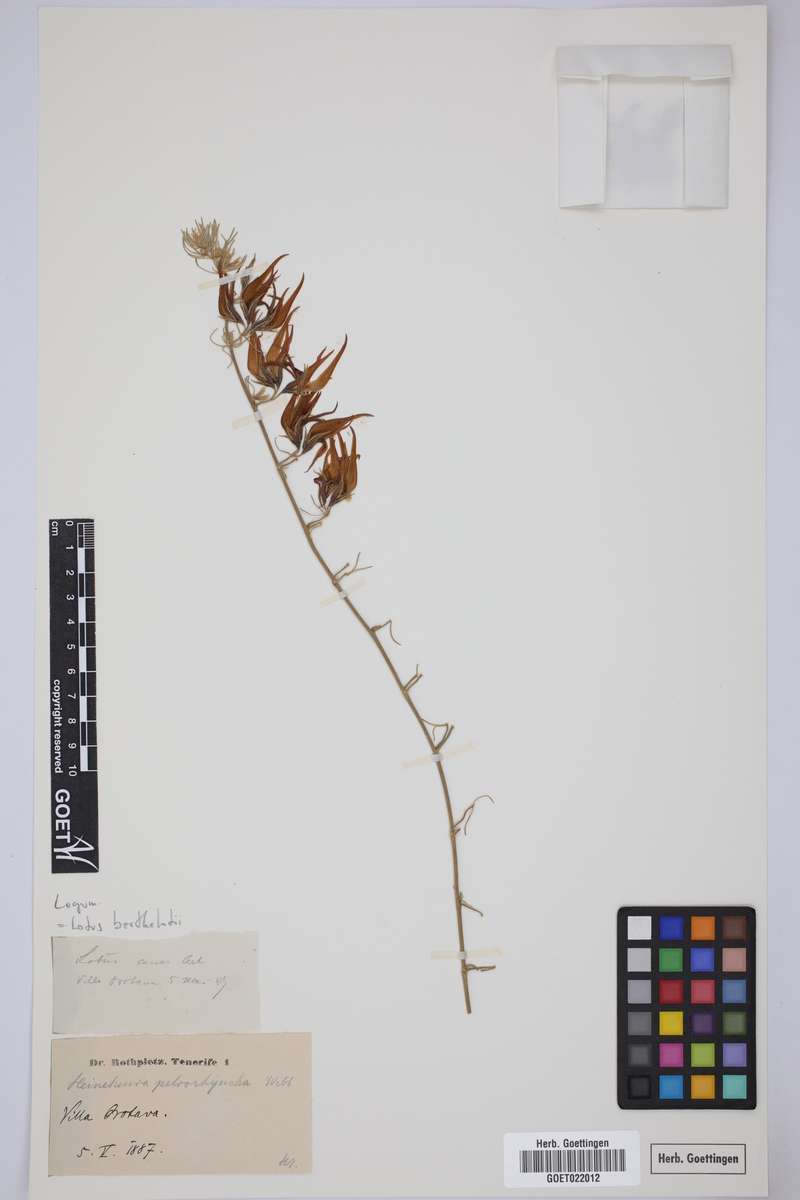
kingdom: Plantae
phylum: Tracheophyta
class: Magnoliopsida
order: Fabales
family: Fabaceae
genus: Lotus
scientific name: Lotus berthelotii
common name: Coralgem
